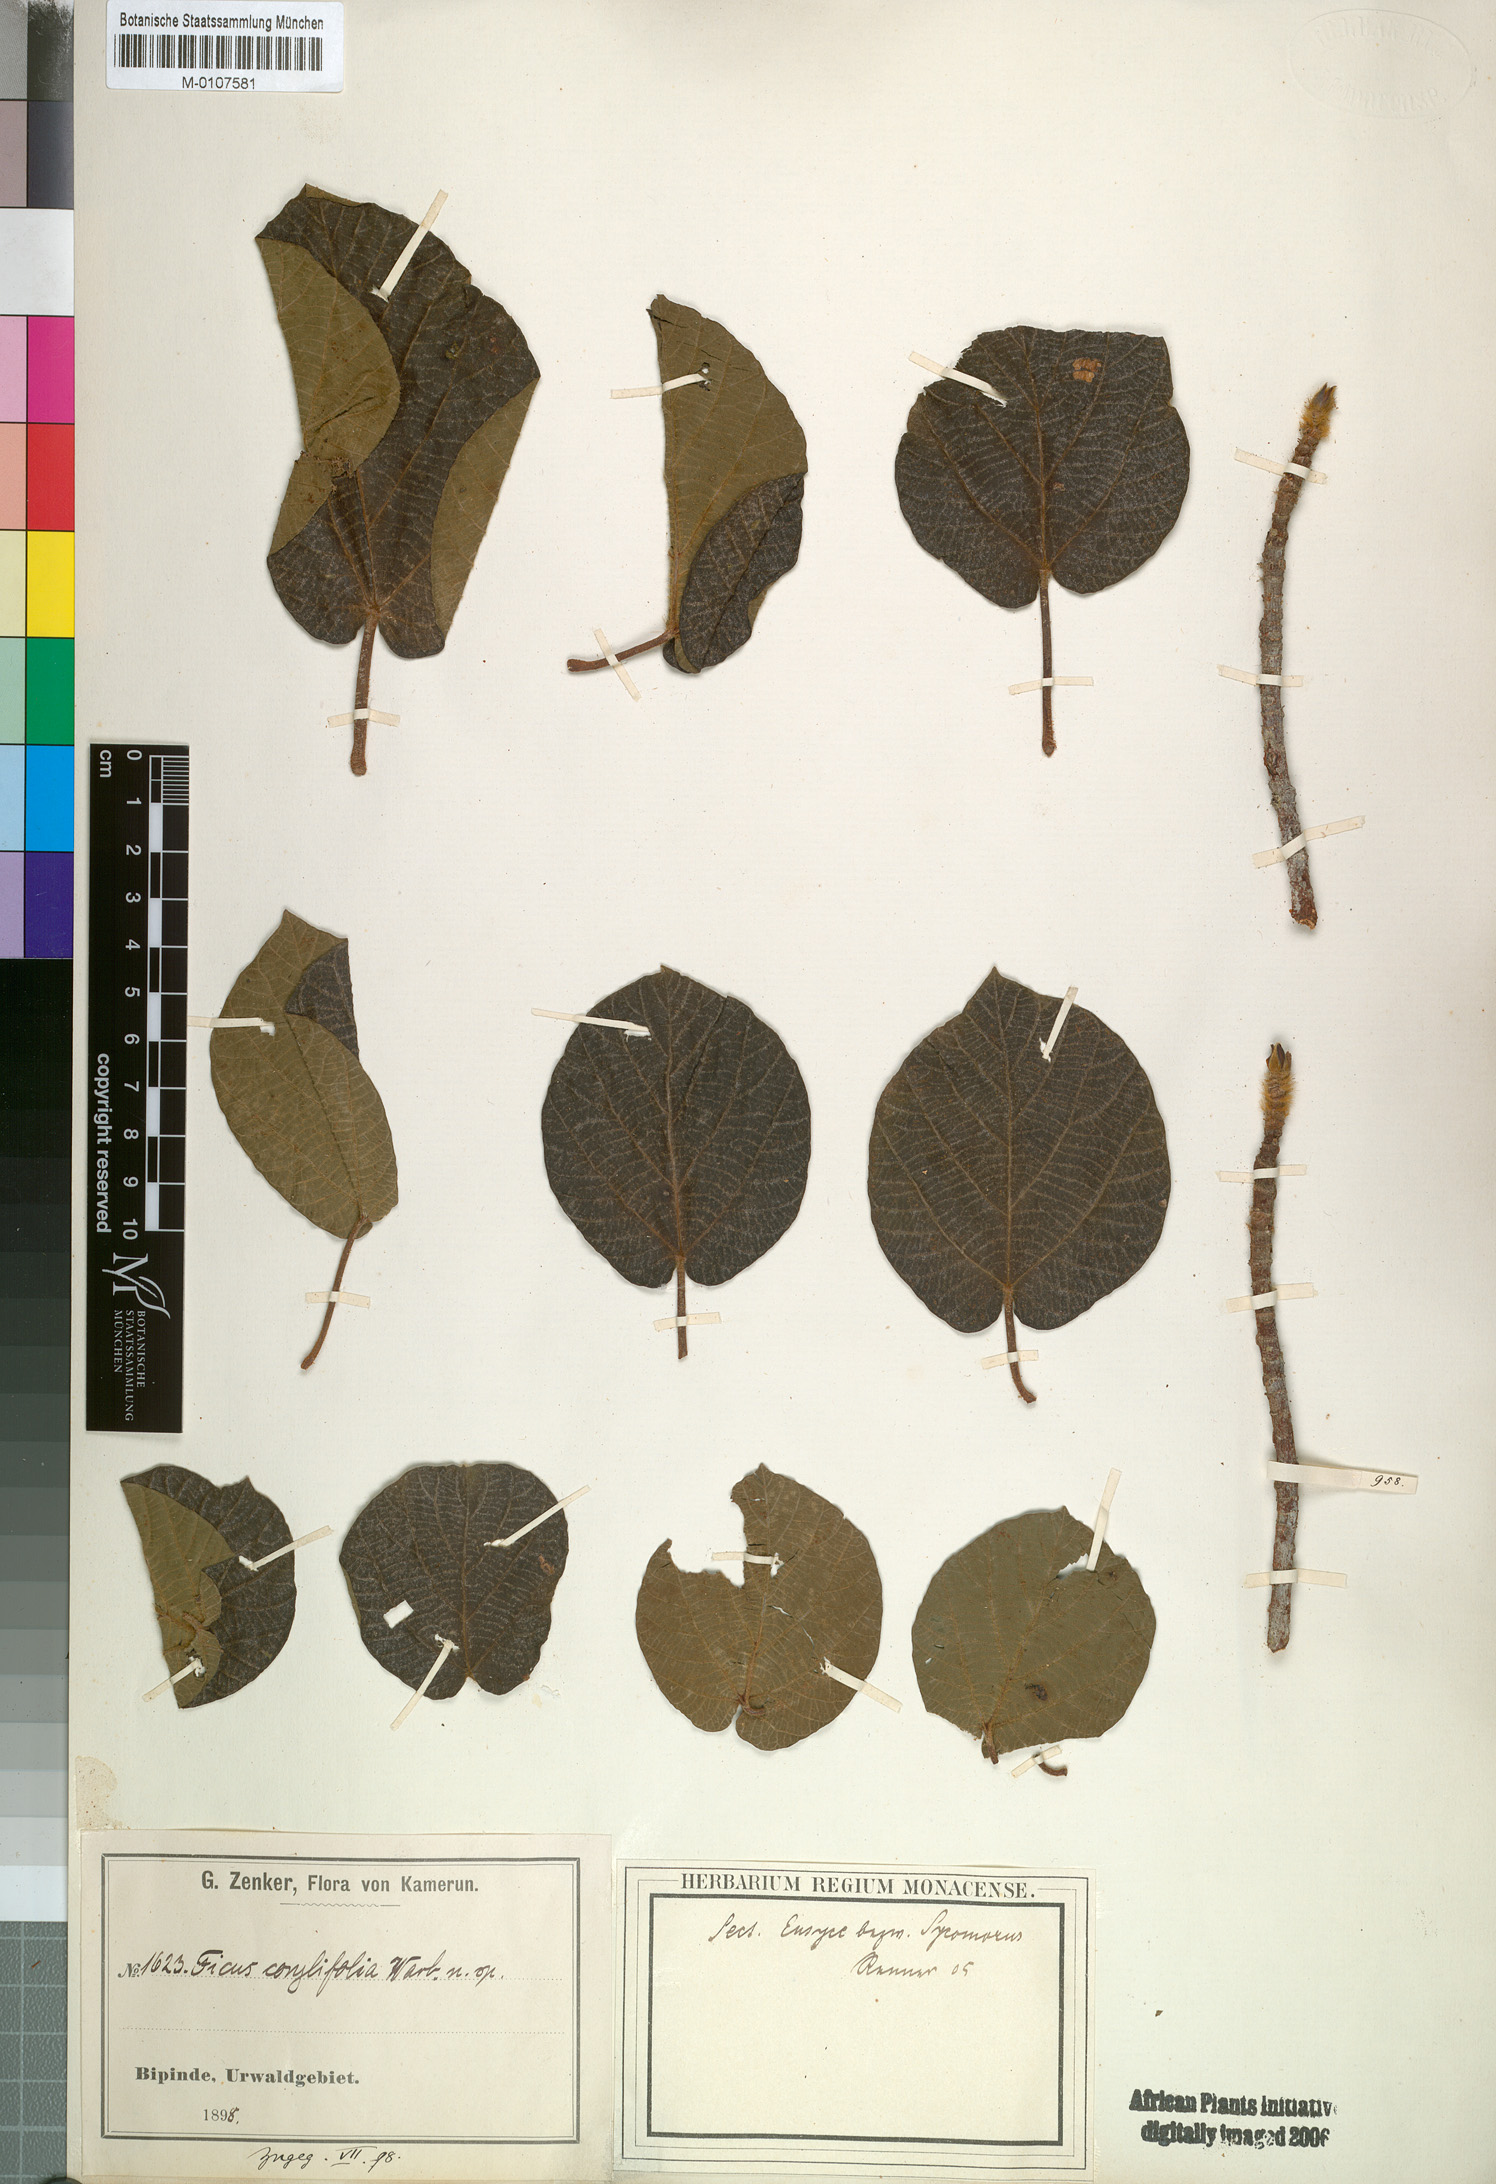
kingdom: Plantae
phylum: Tracheophyta
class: Magnoliopsida
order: Rosales
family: Moraceae
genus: Ficus
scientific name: Ficus mucuso
